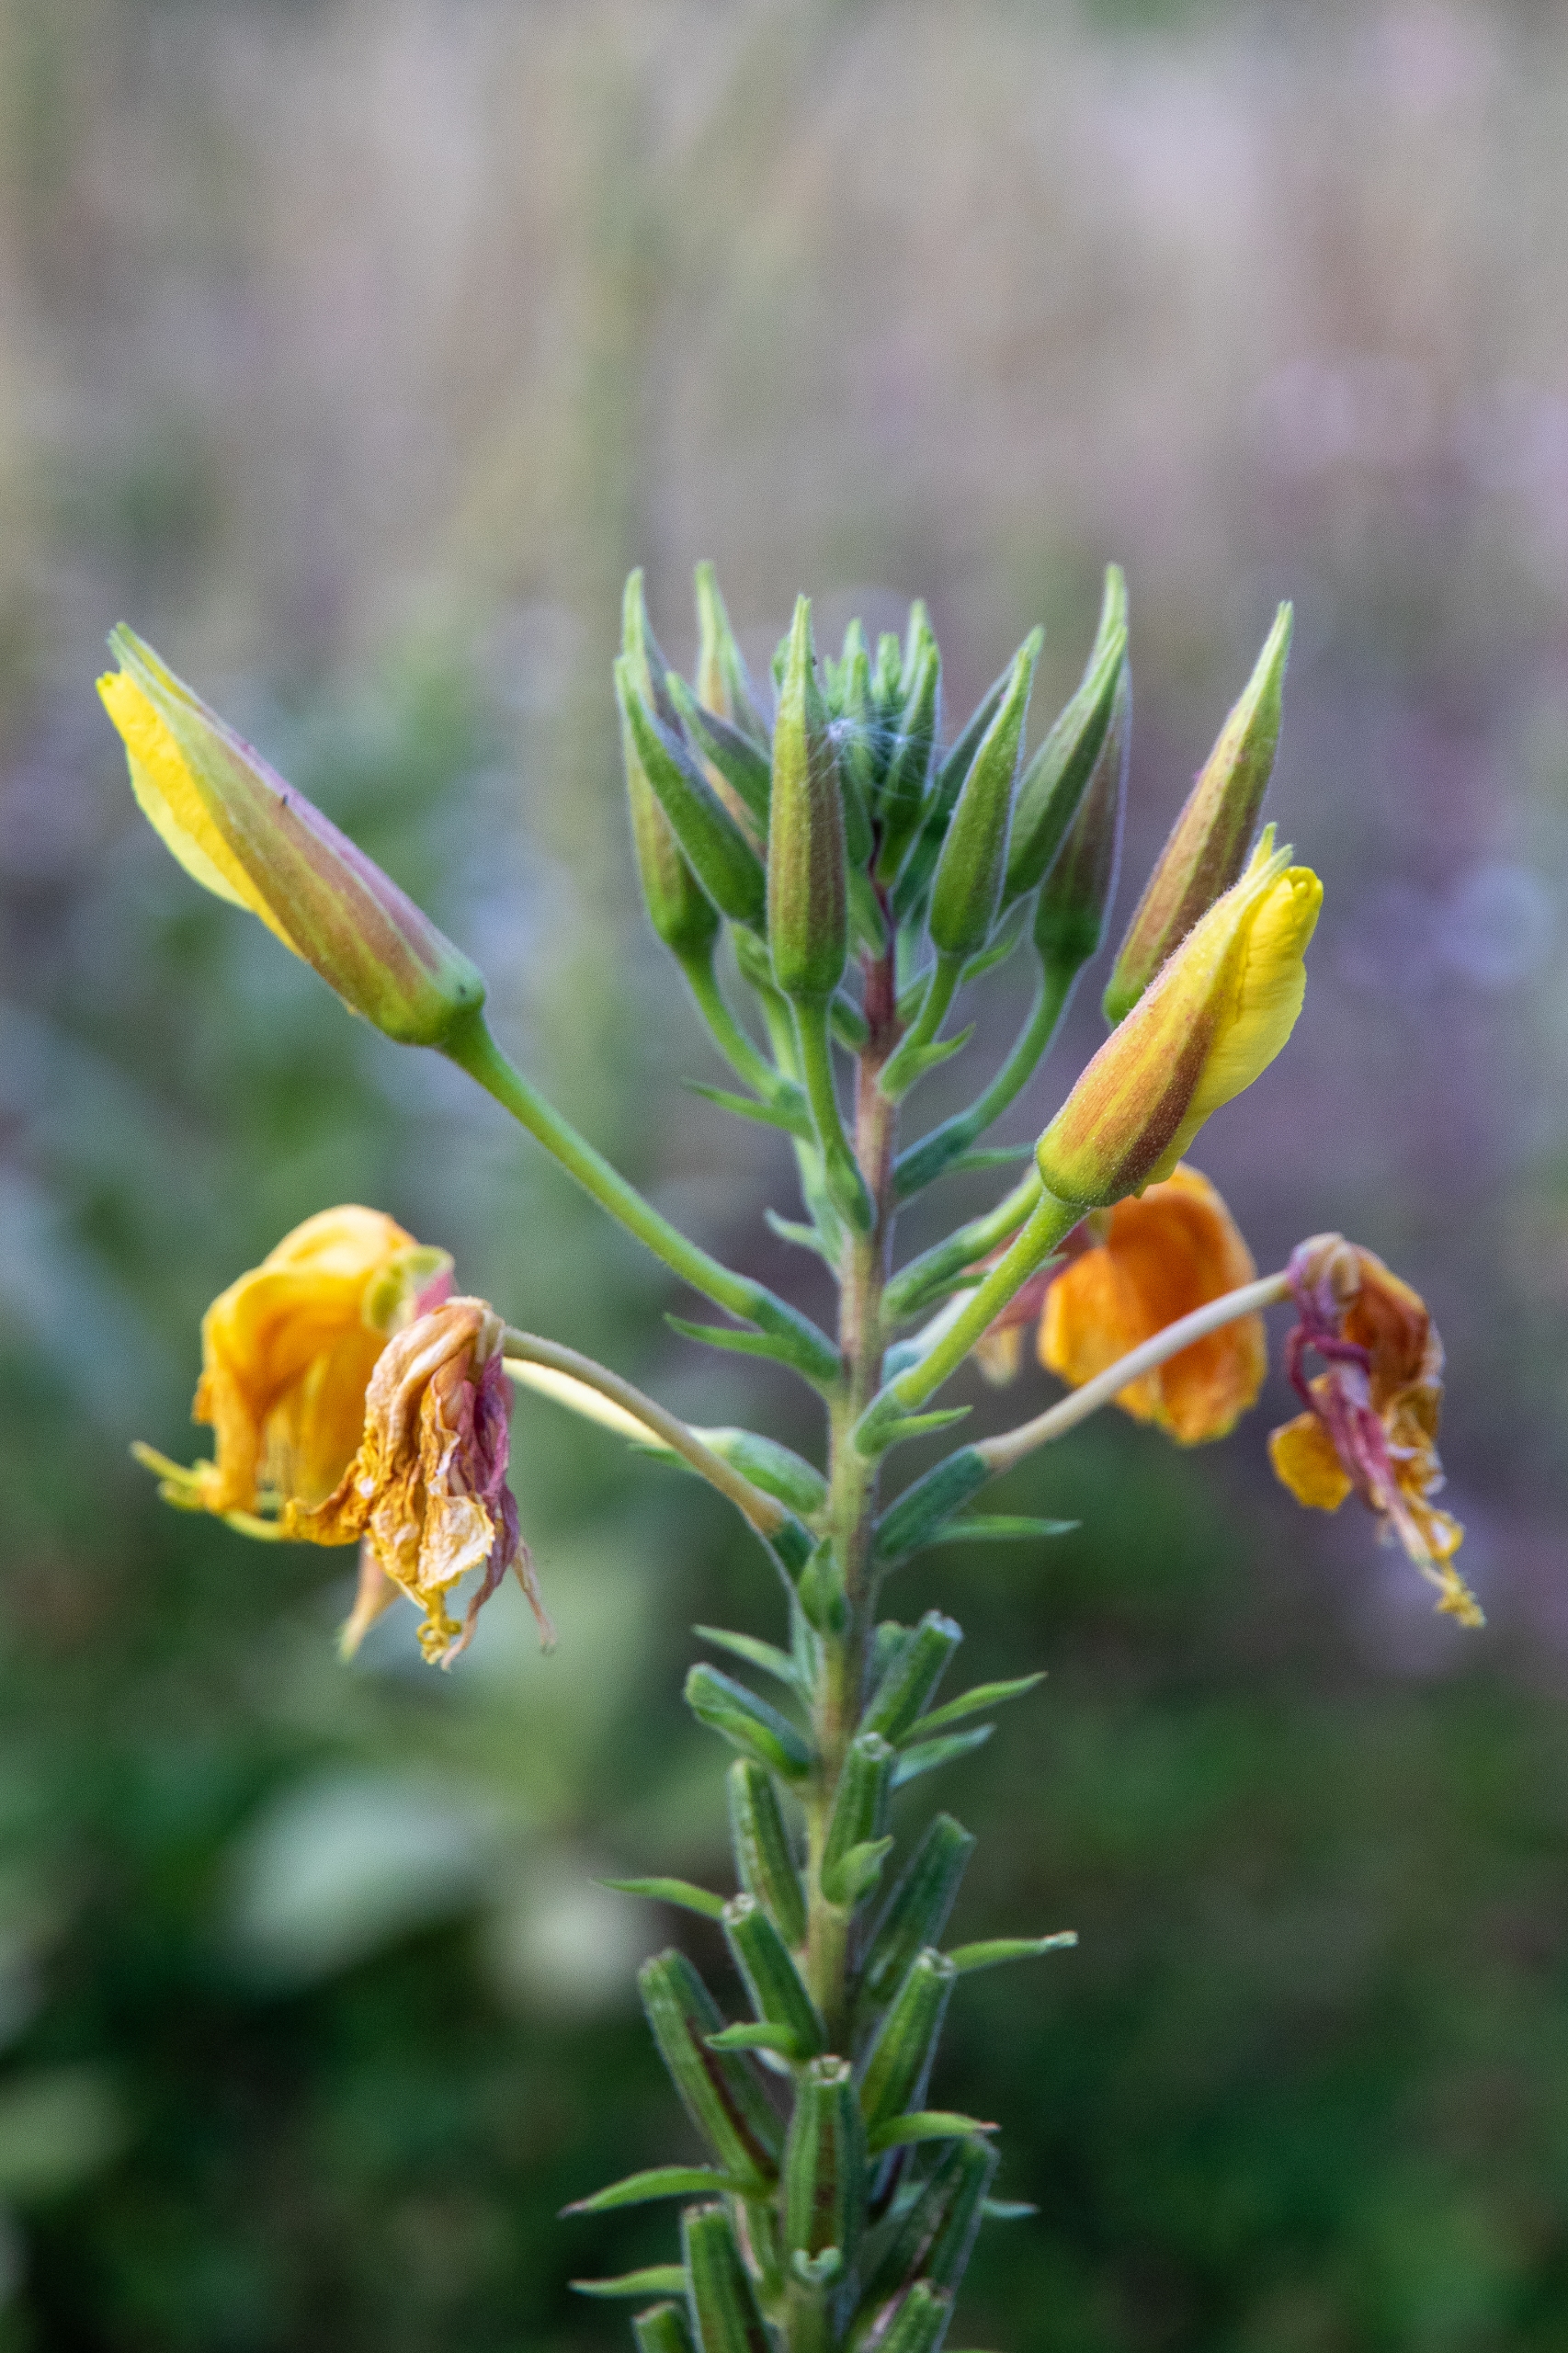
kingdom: Plantae
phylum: Tracheophyta
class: Magnoliopsida
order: Myrtales
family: Onagraceae
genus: Oenothera
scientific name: Oenothera glazioviana
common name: Kæmpe-natlys
